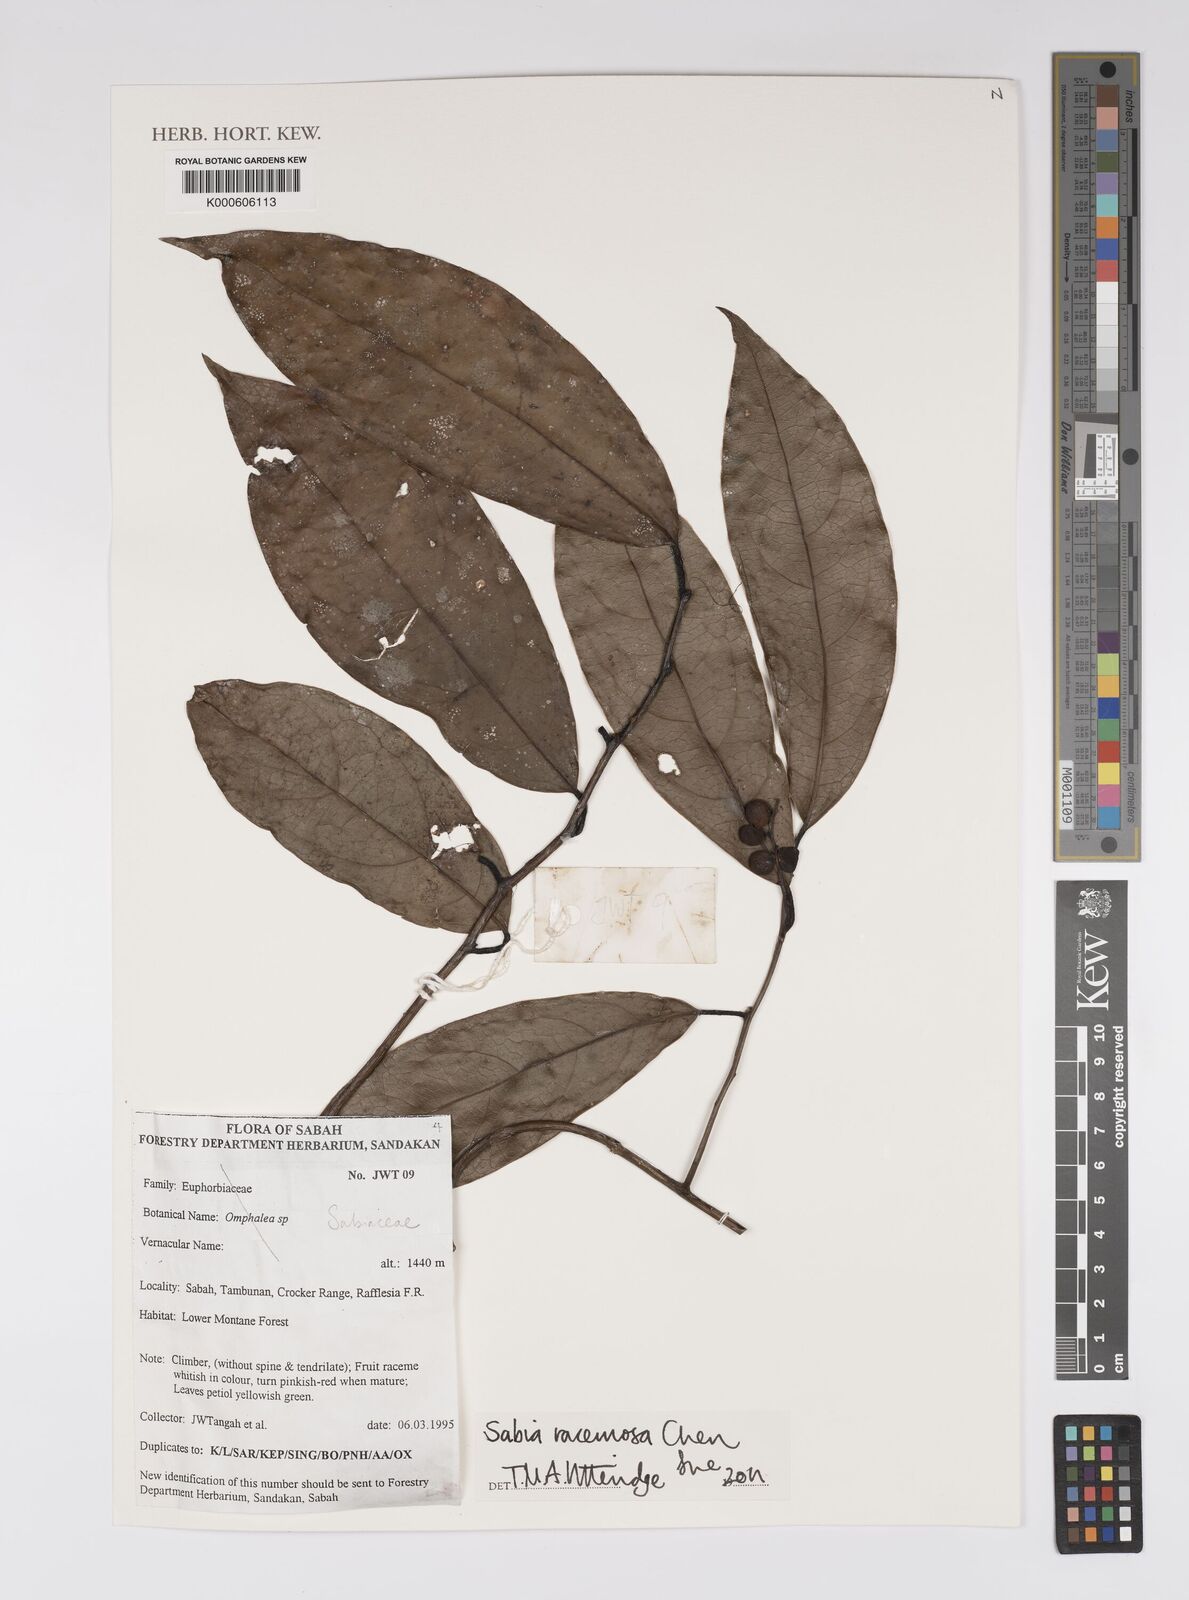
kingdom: Plantae
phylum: Tracheophyta
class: Magnoliopsida
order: Proteales
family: Sabiaceae
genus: Sabia
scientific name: Sabia racemosa
